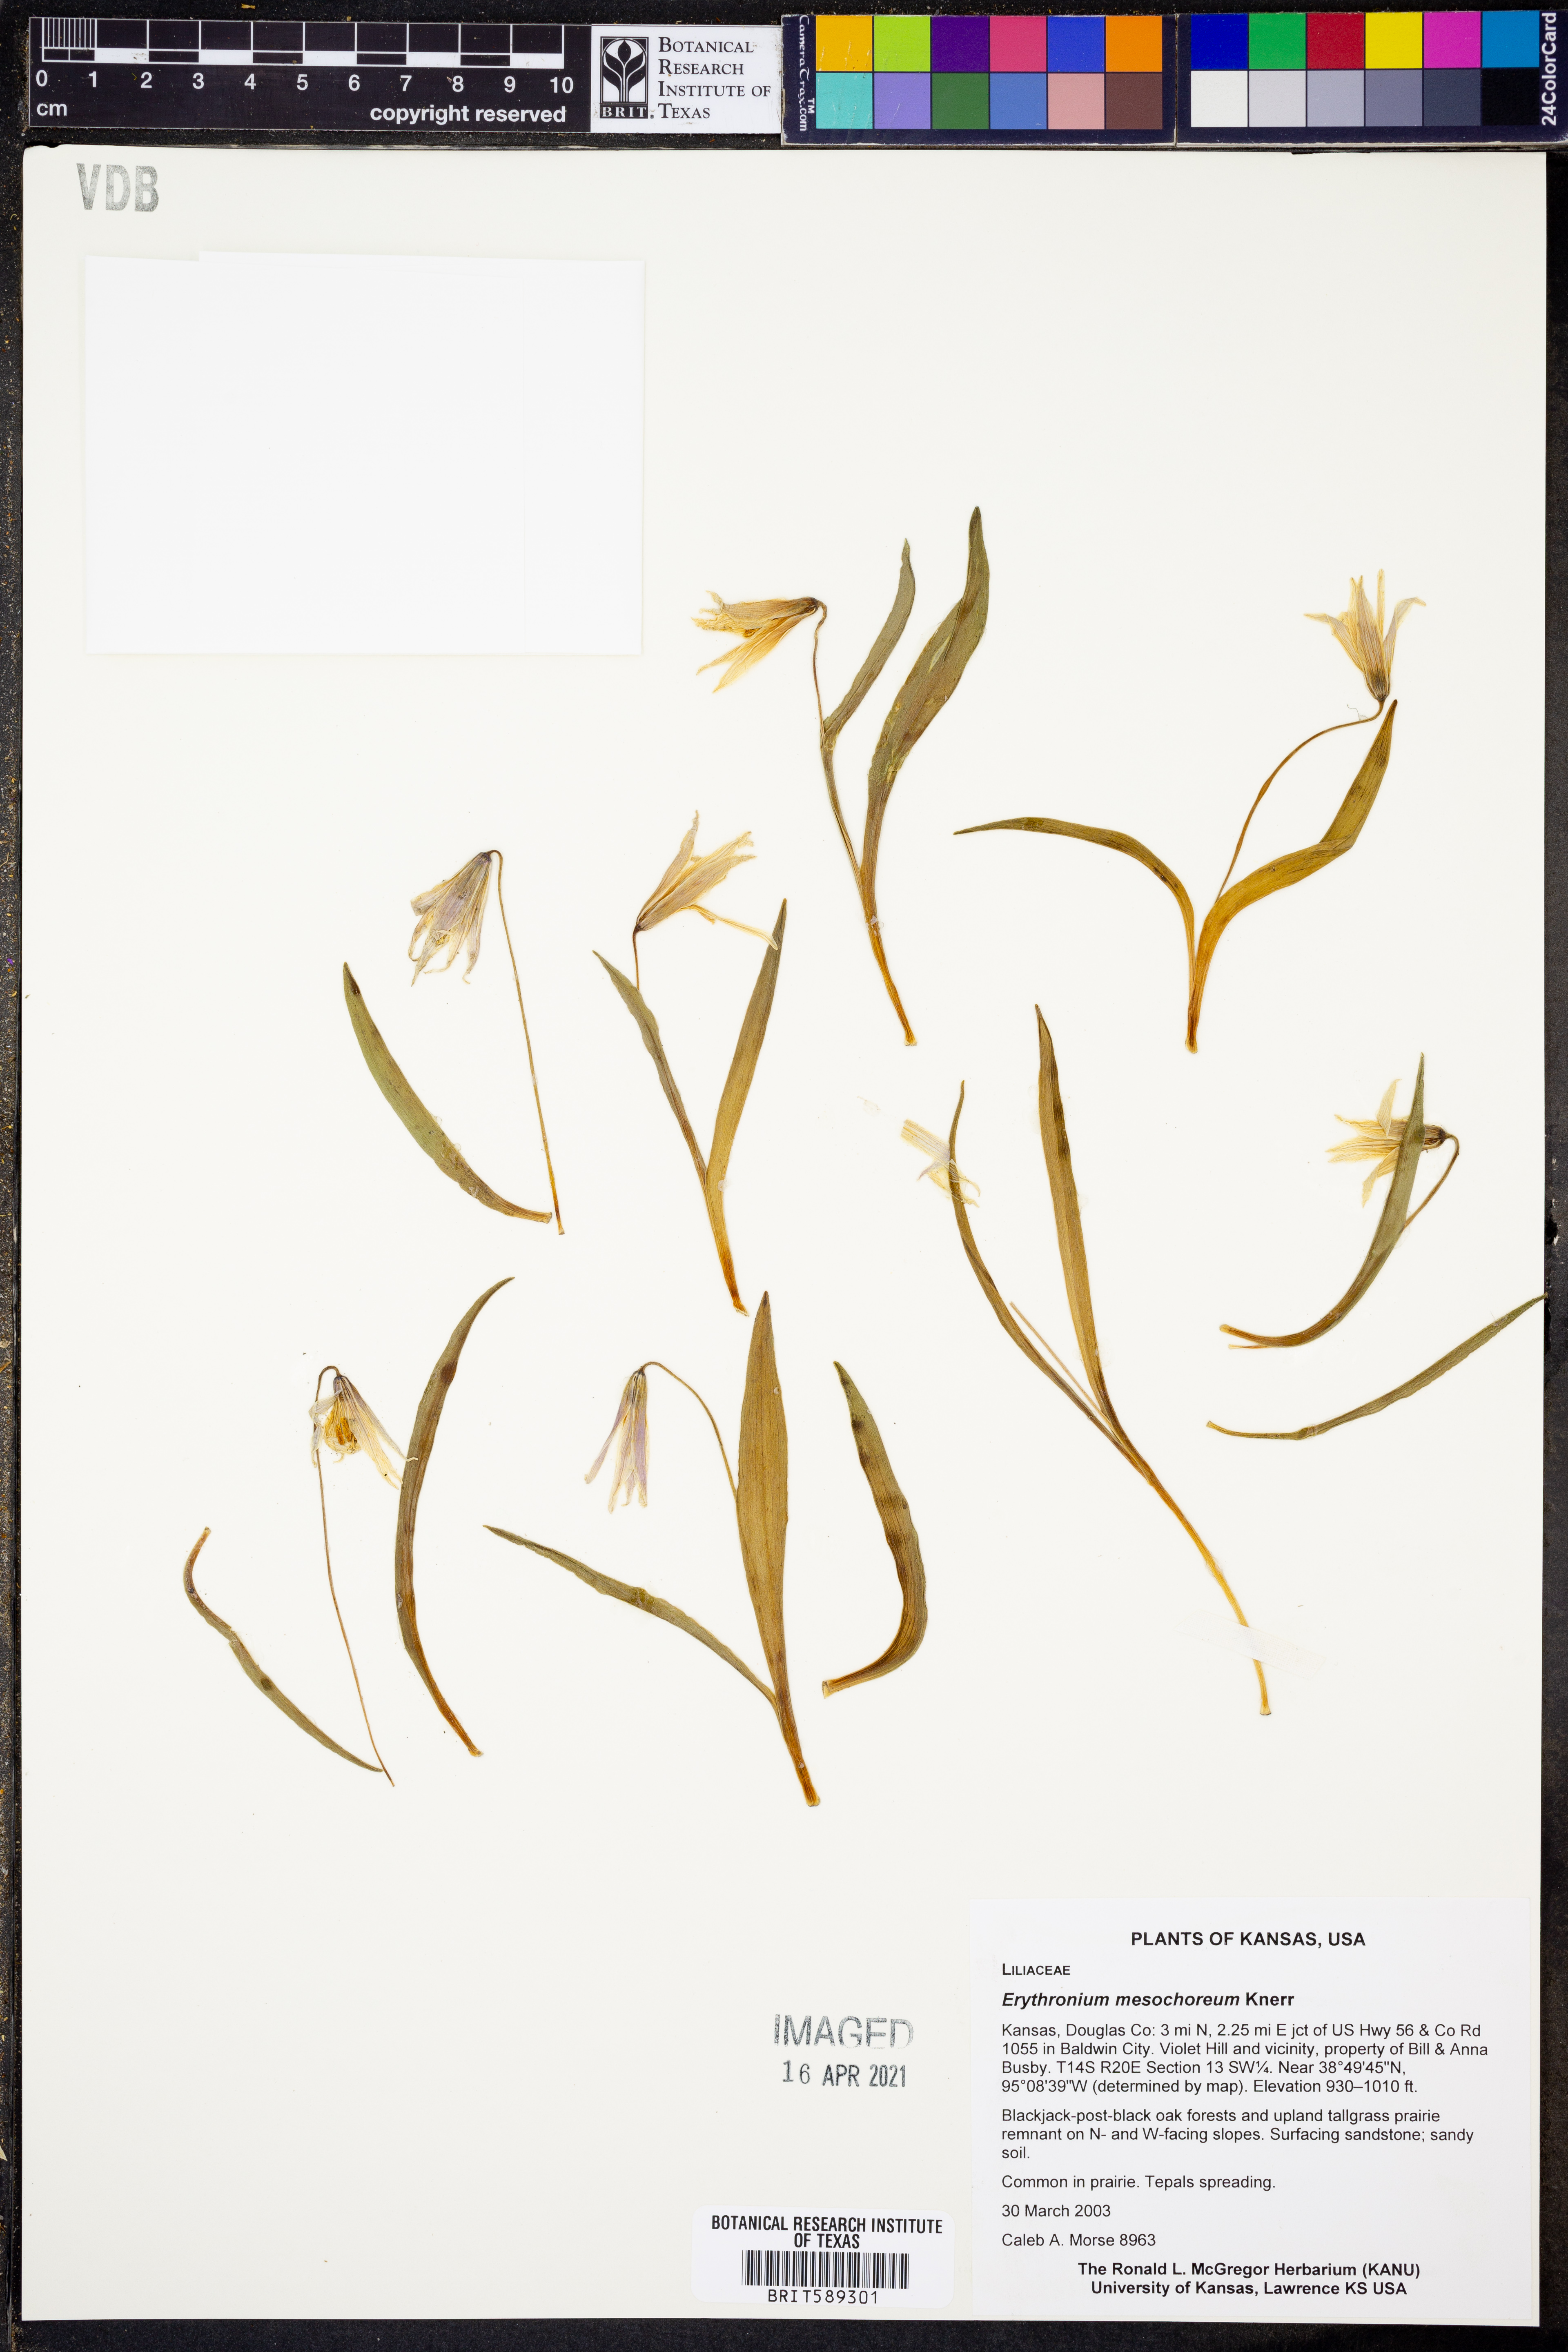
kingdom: Plantae
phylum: Tracheophyta
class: Liliopsida
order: Liliales
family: Liliaceae
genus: Erythronium
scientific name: Erythronium mesochoreum
